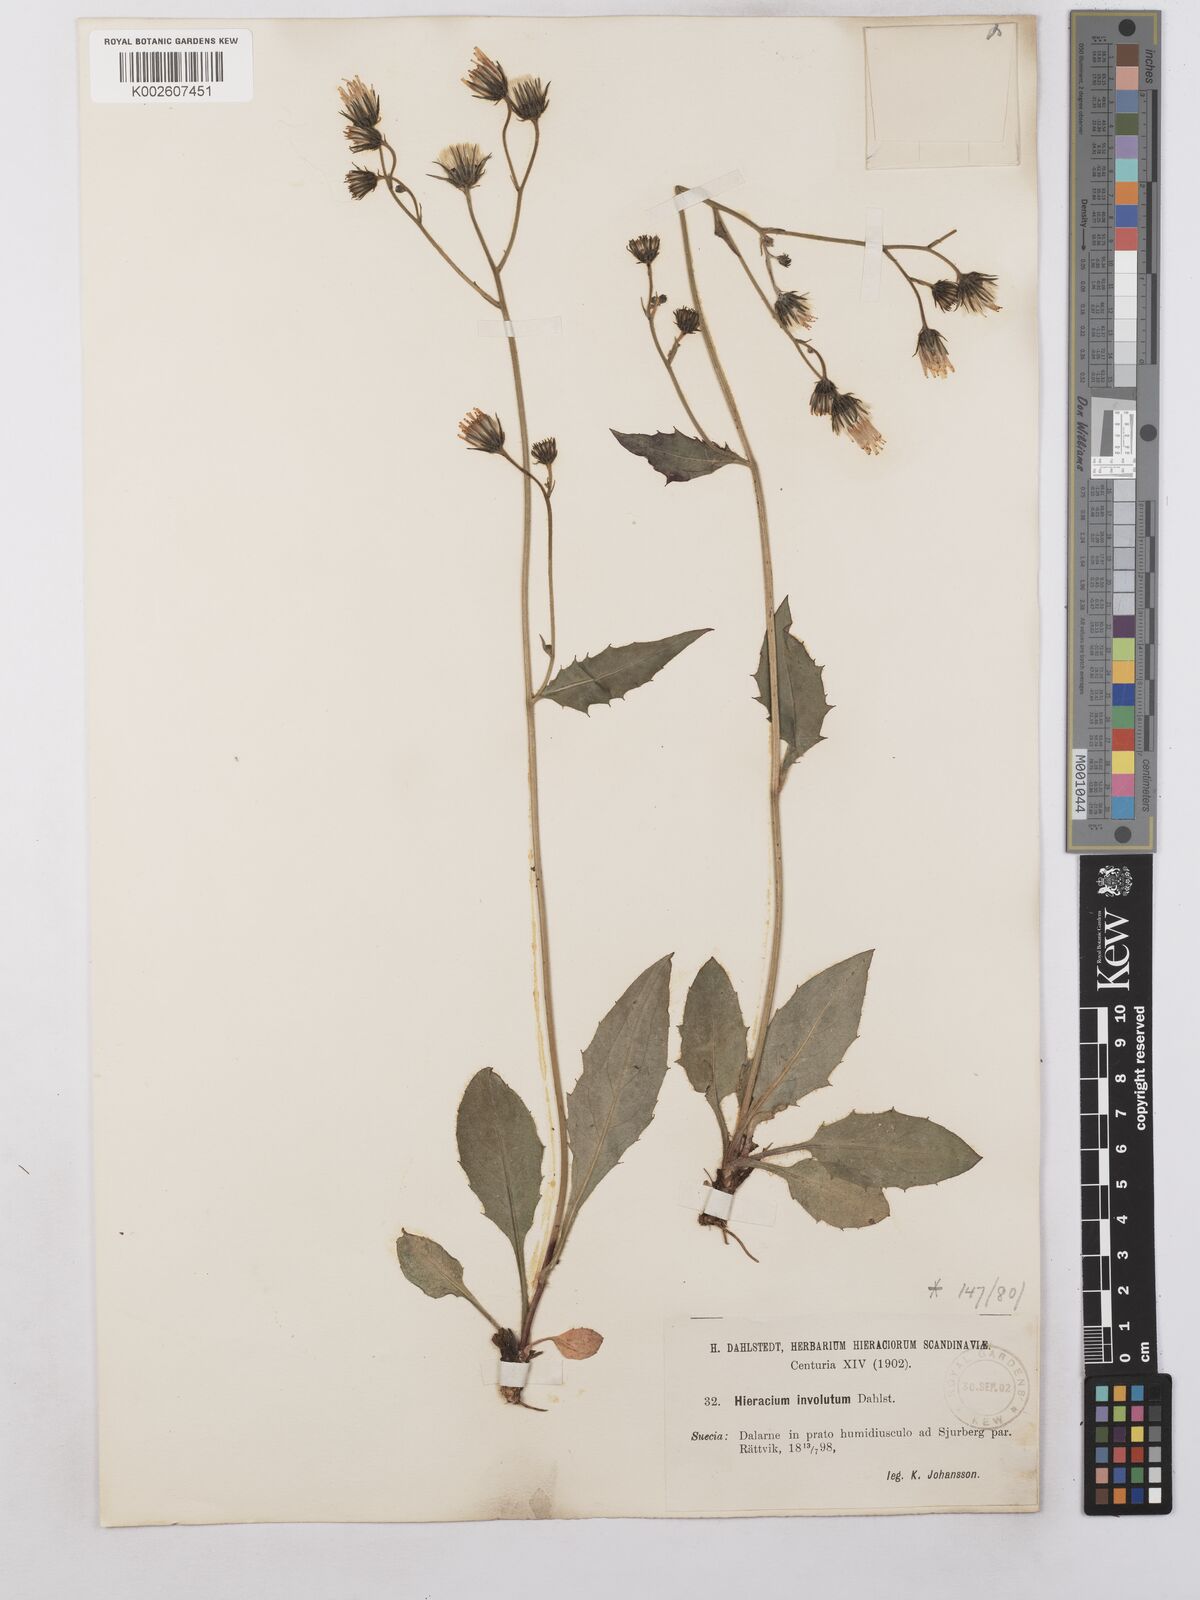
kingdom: Plantae
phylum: Tracheophyta
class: Magnoliopsida
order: Asterales
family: Asteraceae
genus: Hieracium
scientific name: Hieracium caesium
